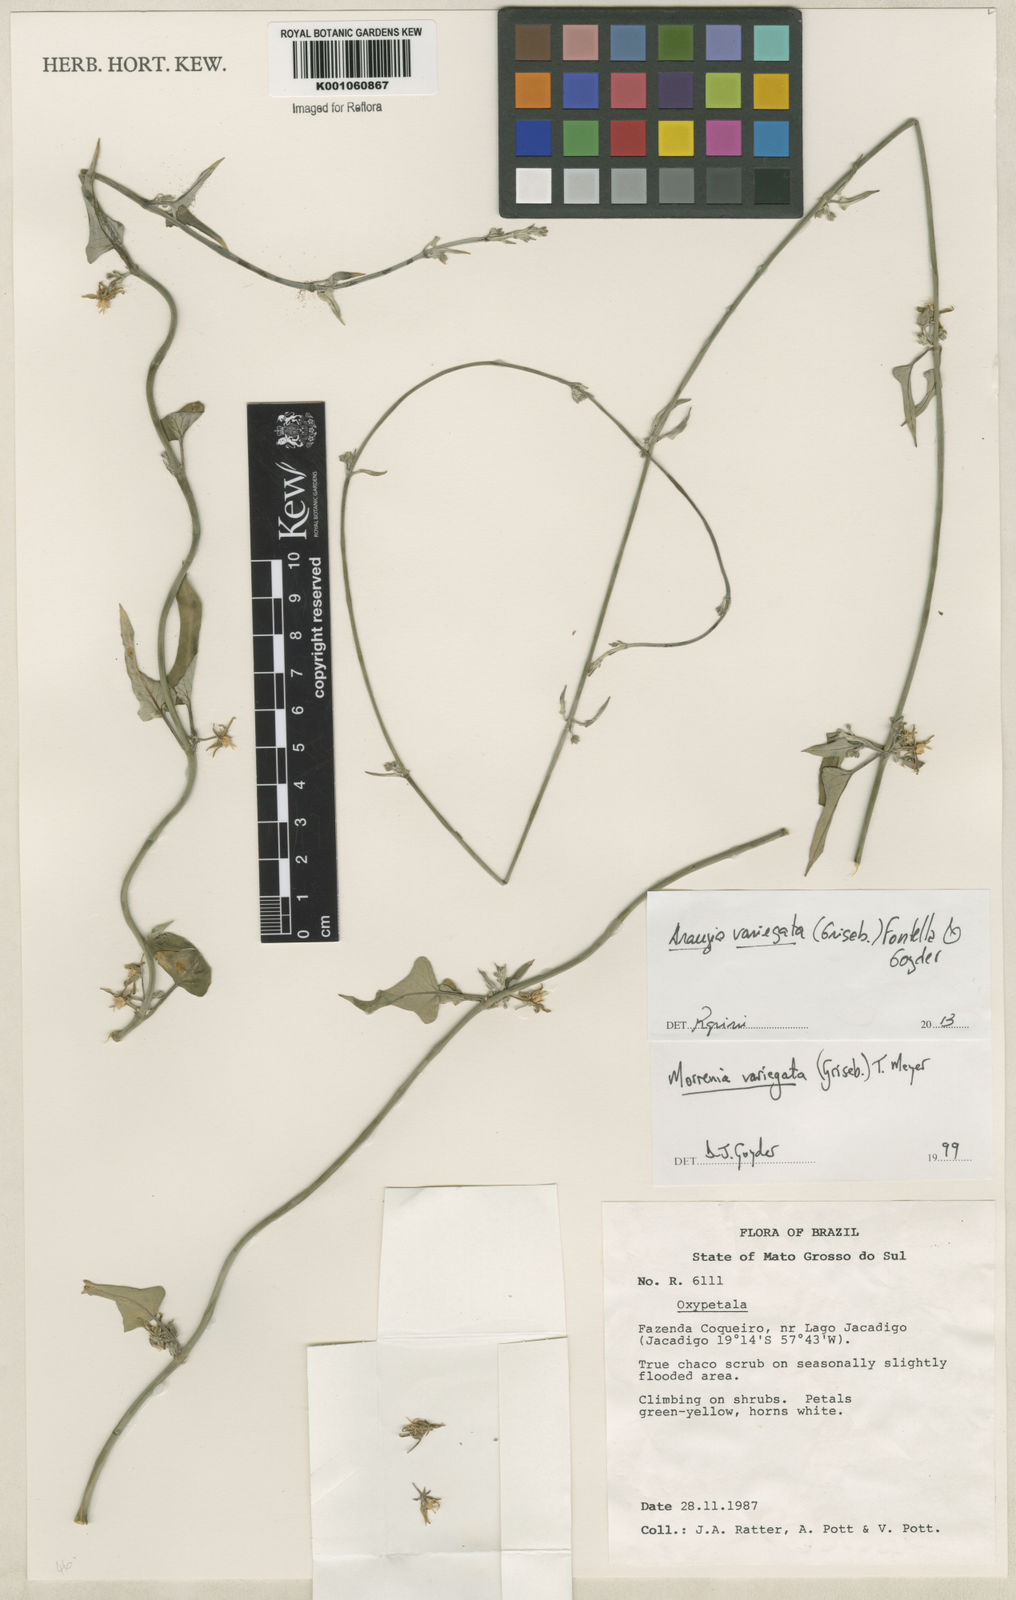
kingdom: Plantae
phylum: Tracheophyta
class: Magnoliopsida
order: Gentianales
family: Apocynaceae
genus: Araujia
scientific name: Araujia variegata
